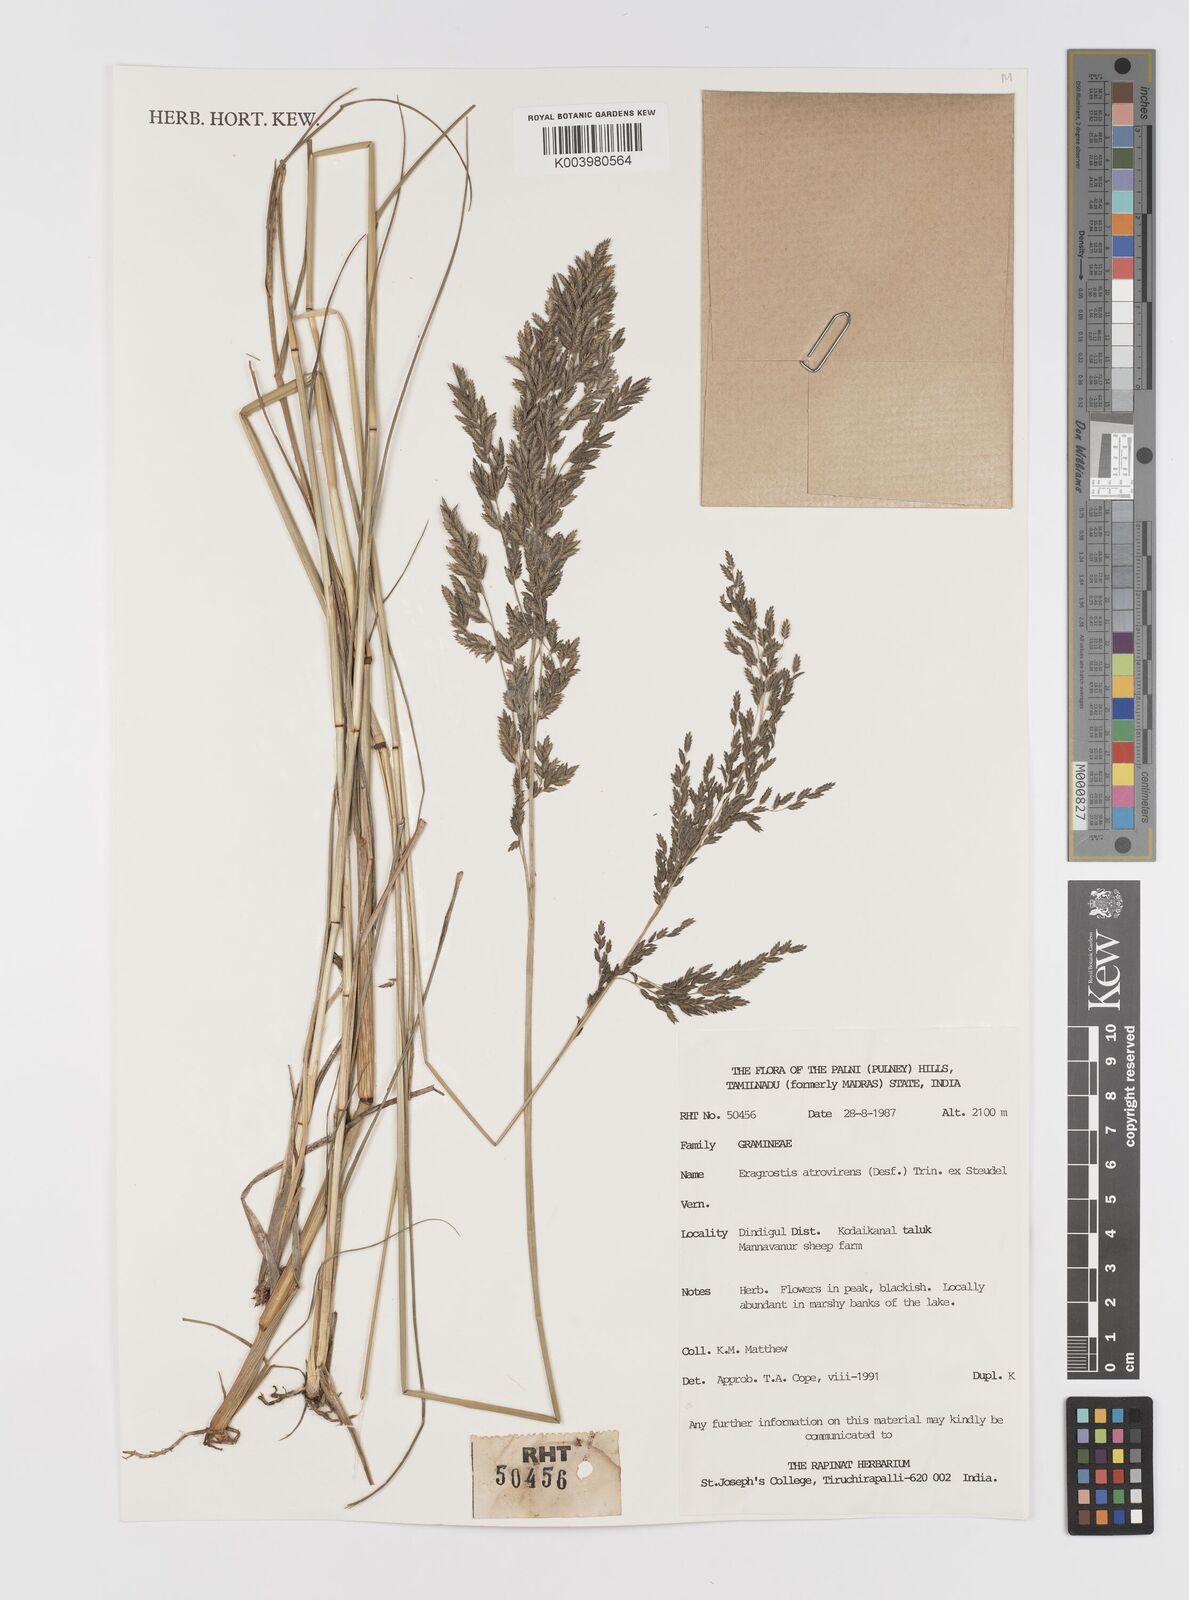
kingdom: Plantae
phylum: Tracheophyta
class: Liliopsida
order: Poales
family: Poaceae
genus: Eragrostis
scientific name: Eragrostis atrovirens
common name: Thalia lovegrass
